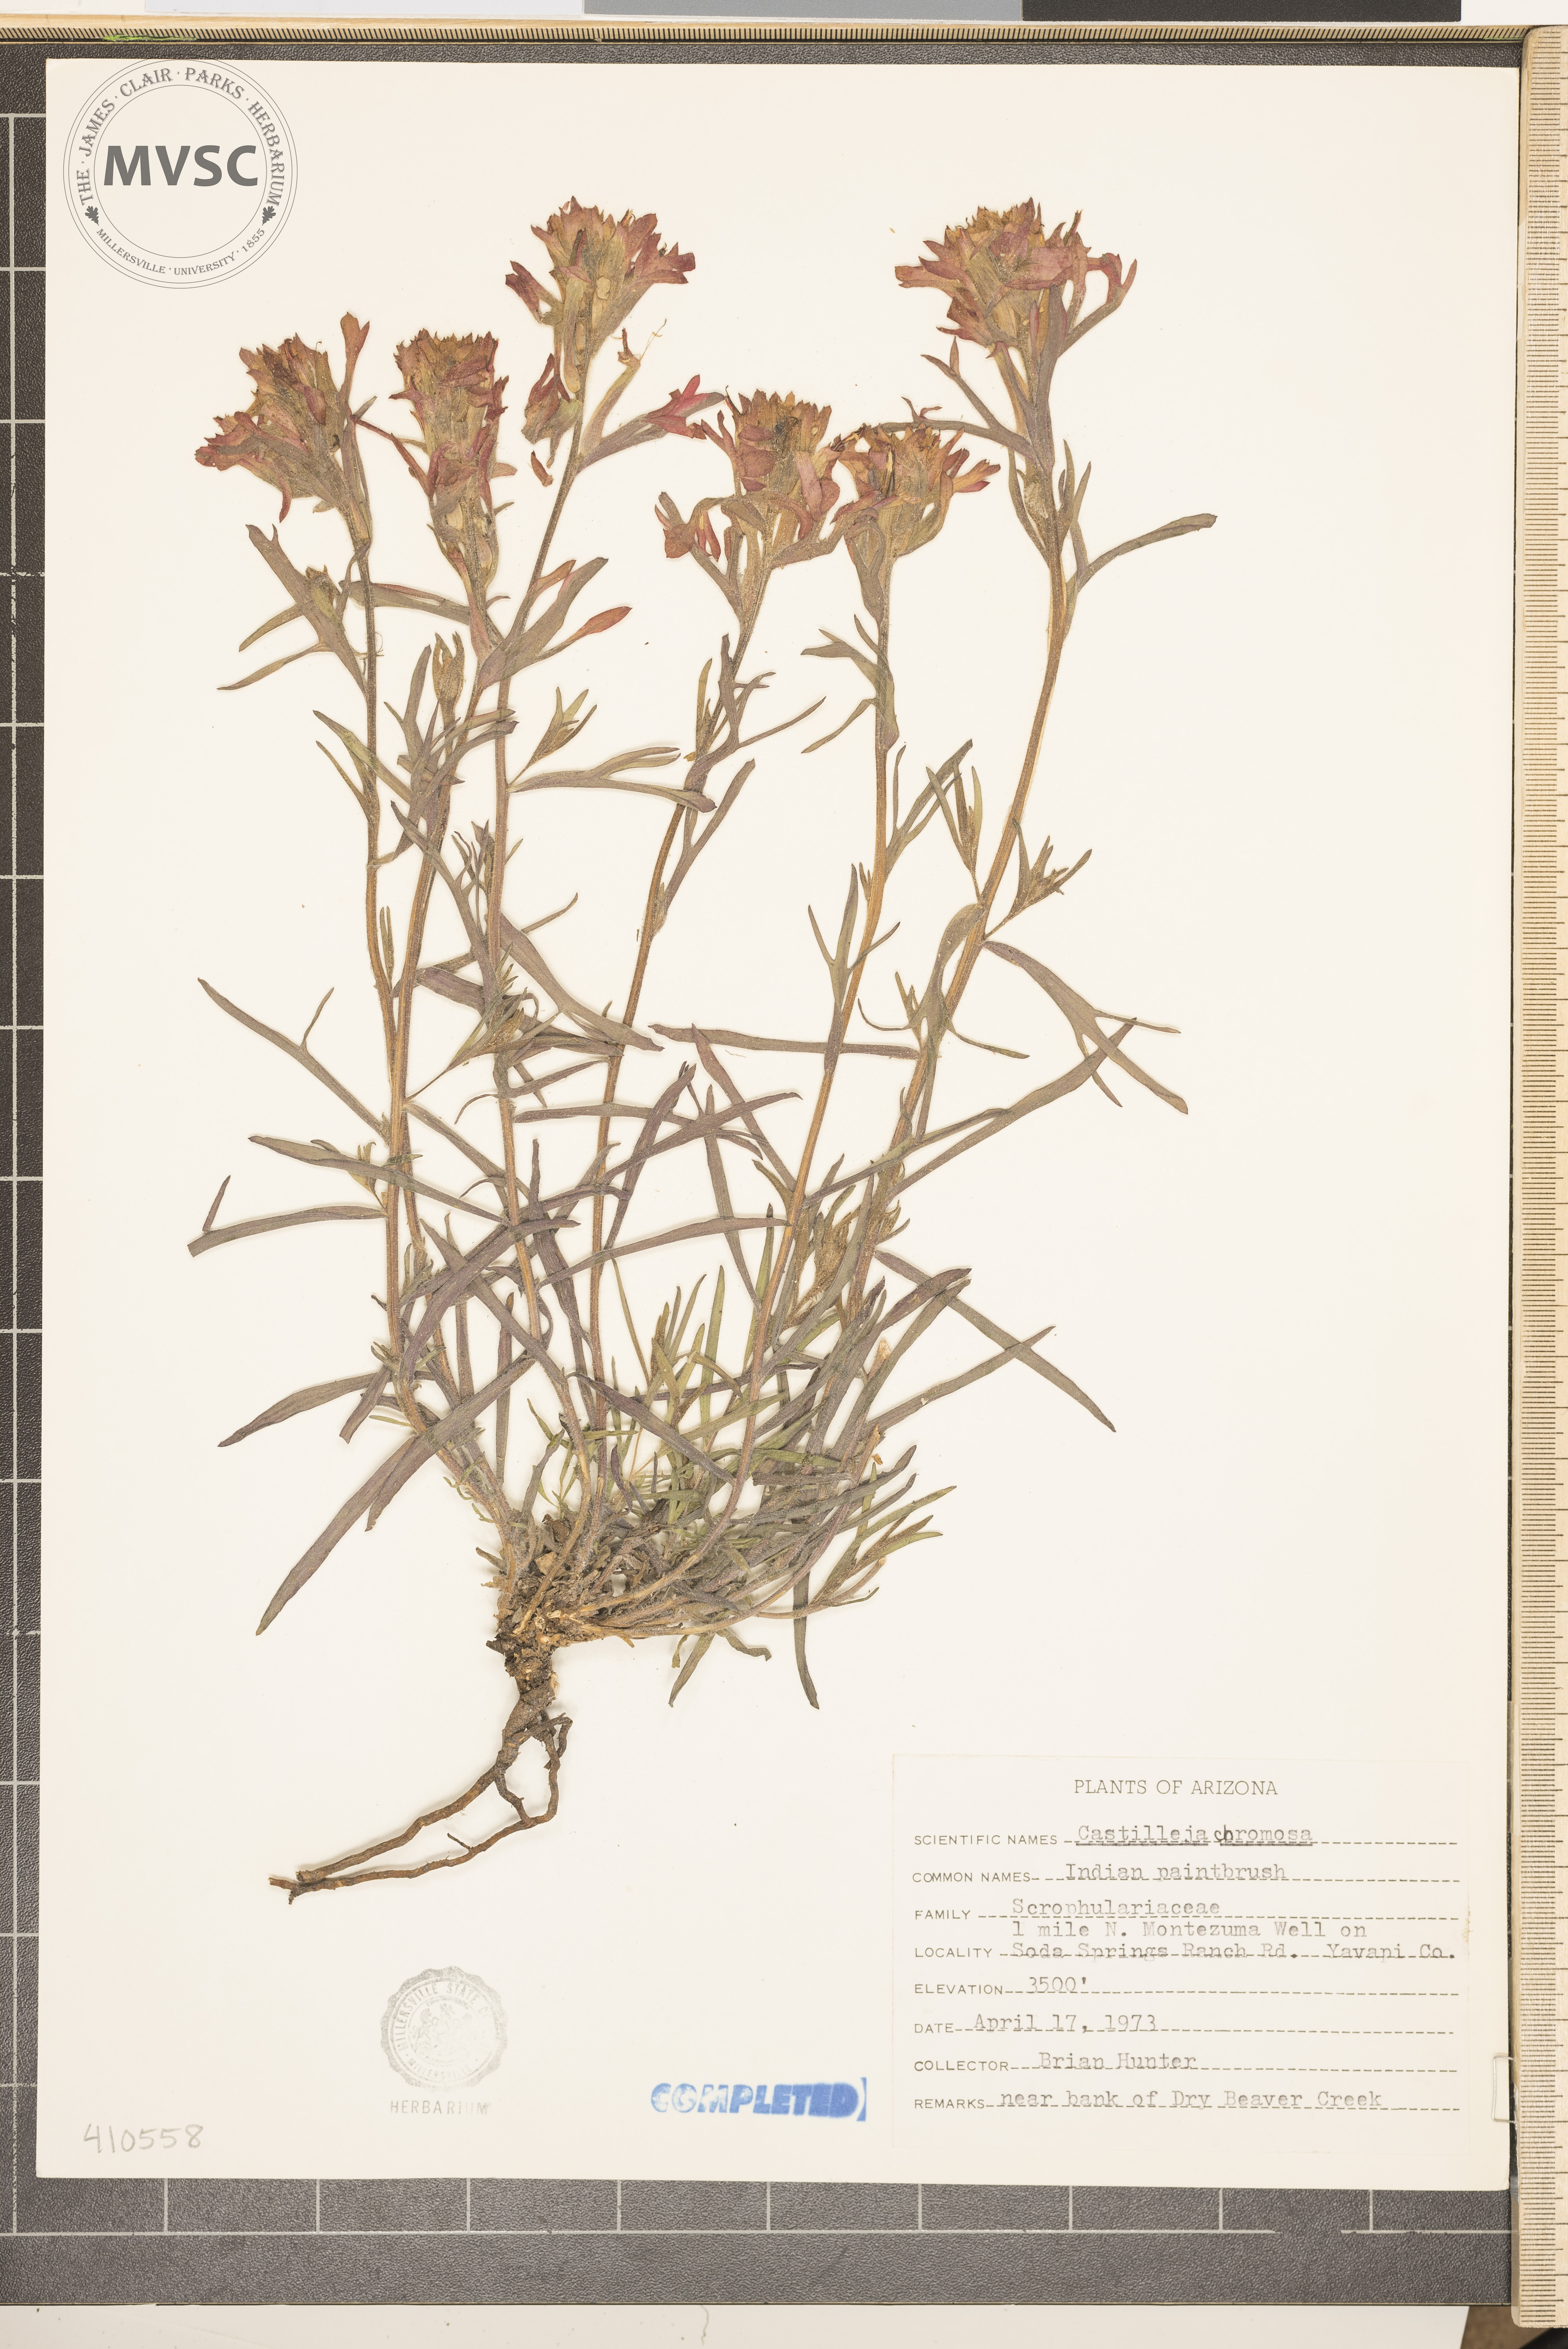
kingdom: Plantae
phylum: Tracheophyta
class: Magnoliopsida
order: Lamiales
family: Orobanchaceae
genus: Castilleja
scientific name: Castilleja chromosa
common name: Desert paintbrush
